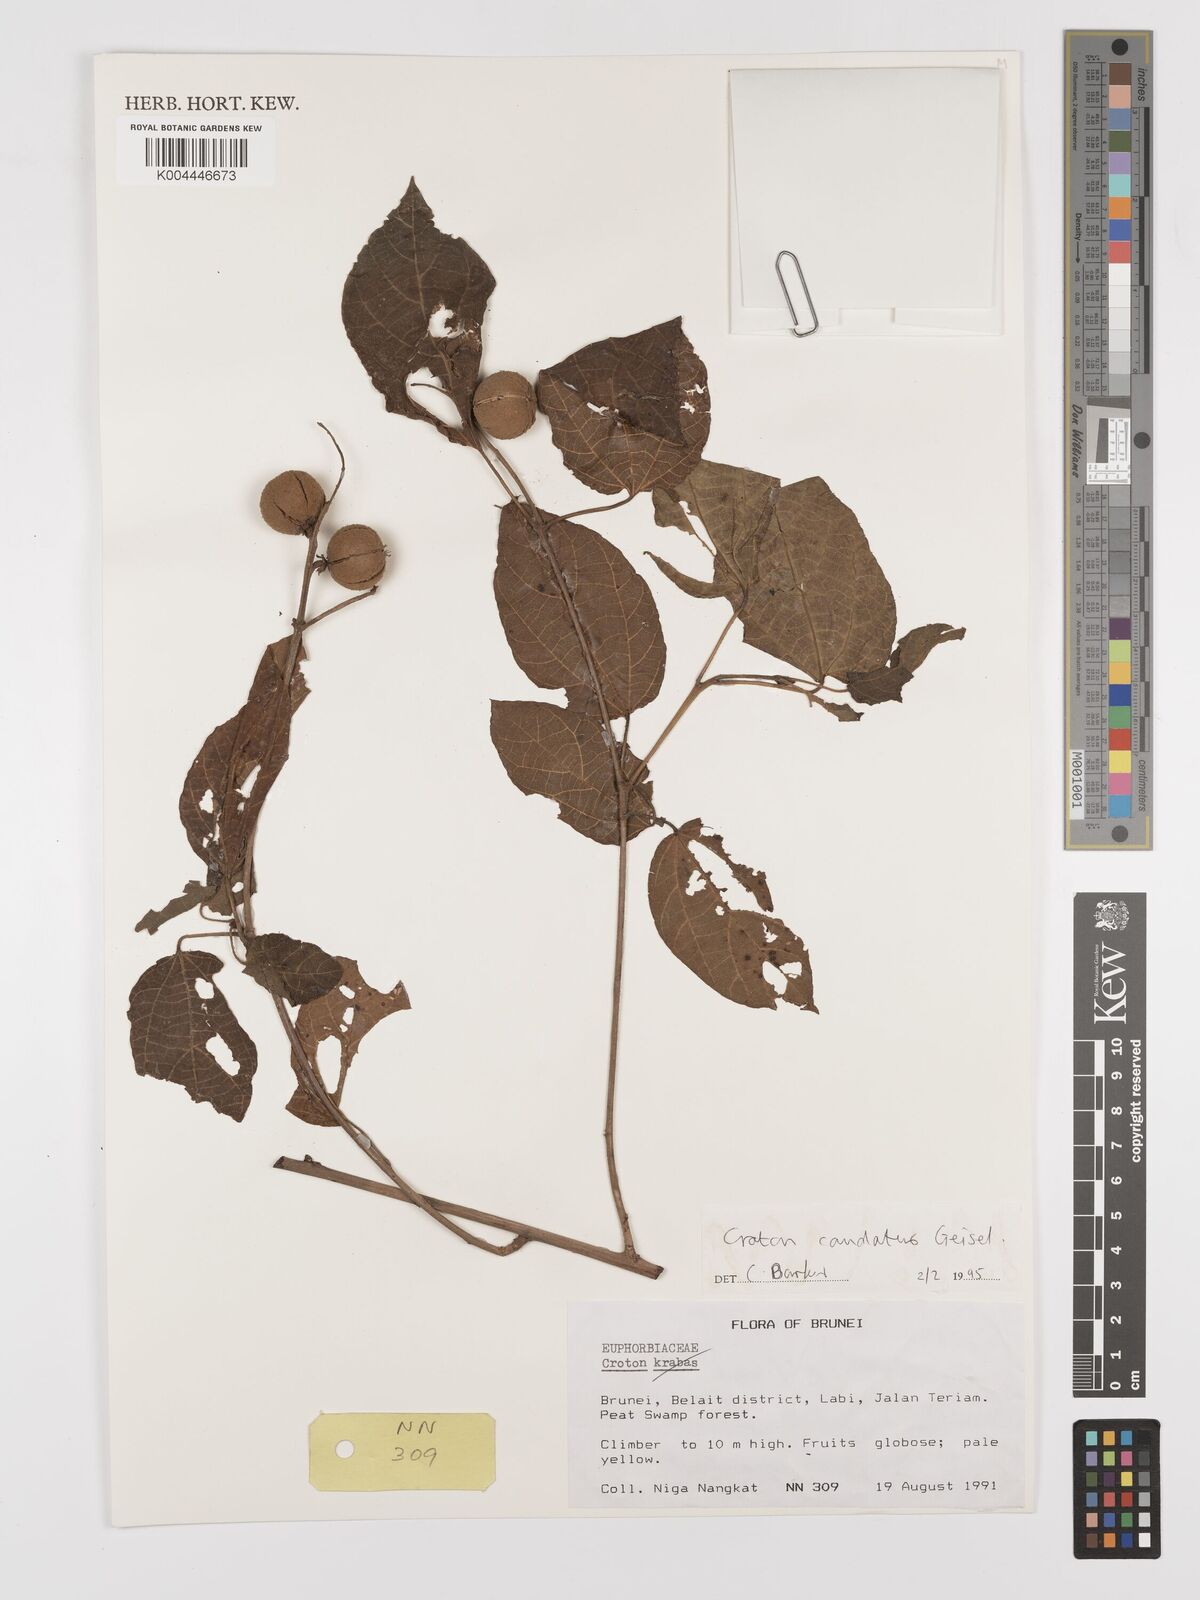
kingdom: Plantae
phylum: Tracheophyta
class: Magnoliopsida
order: Malpighiales
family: Euphorbiaceae
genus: Croton
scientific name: Croton caudatus
